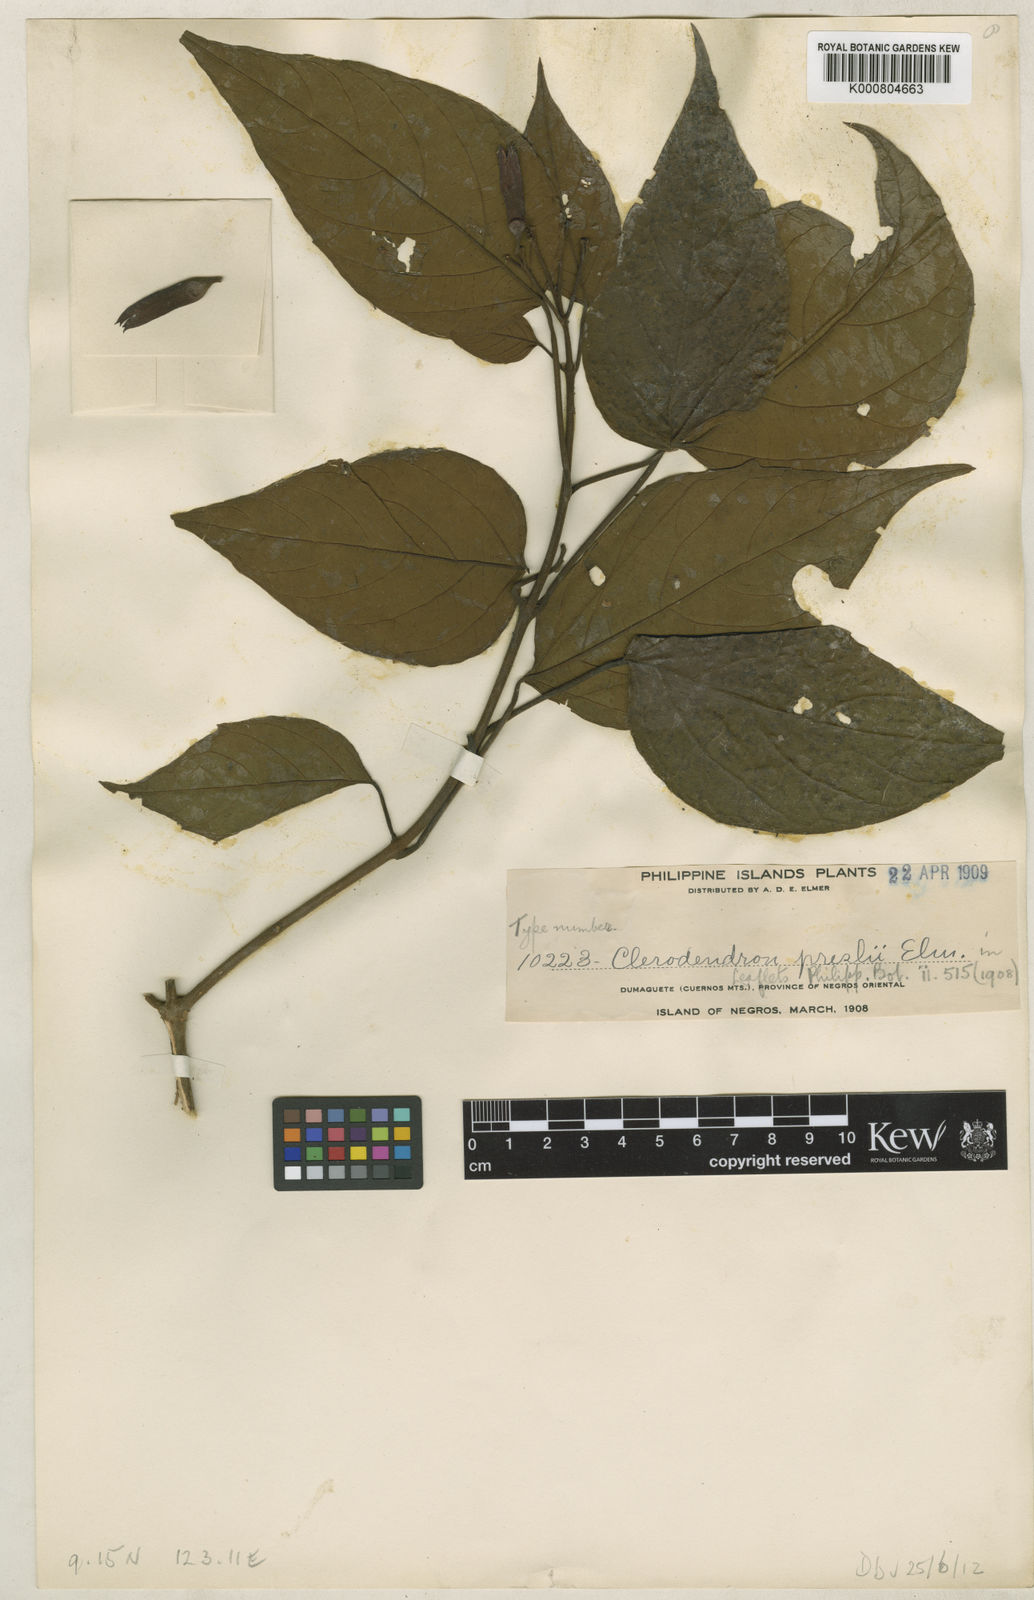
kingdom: Plantae
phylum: Tracheophyta
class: Magnoliopsida
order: Lamiales
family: Lamiaceae
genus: Clerodendrum
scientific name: Clerodendrum preslii
